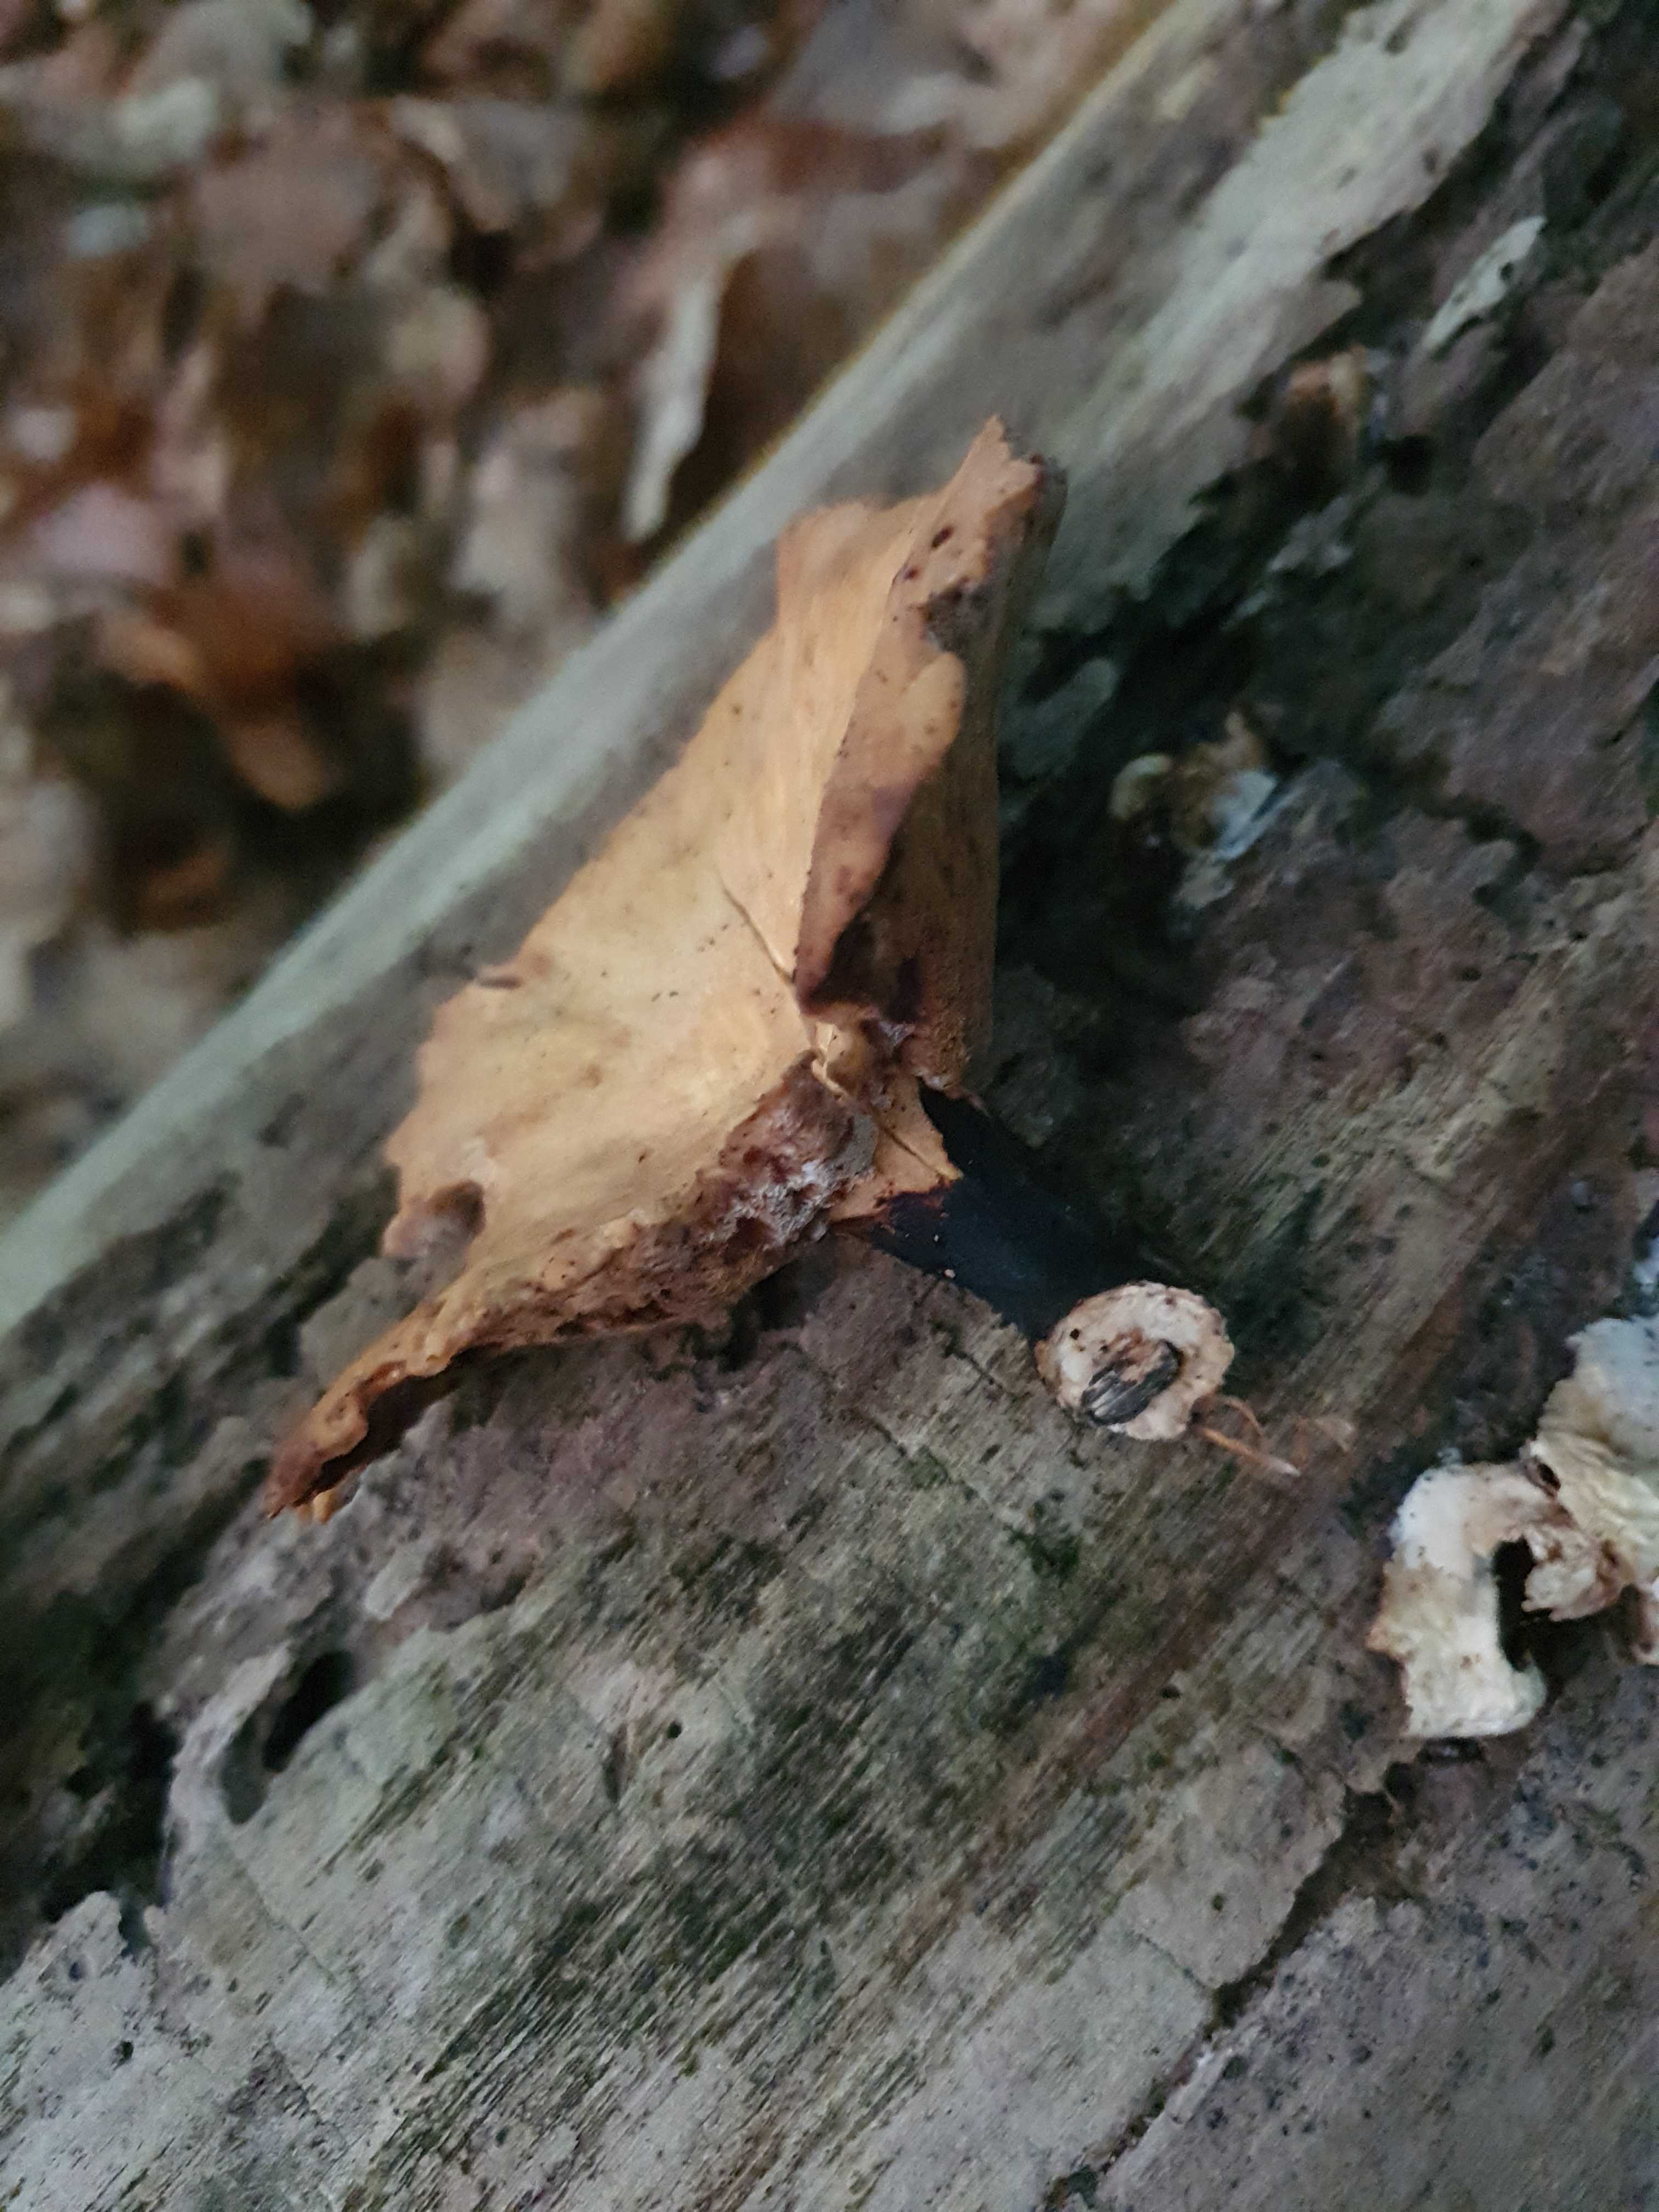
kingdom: Fungi
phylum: Basidiomycota
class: Agaricomycetes
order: Polyporales
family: Polyporaceae
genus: Cerioporus
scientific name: Cerioporus varius
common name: foranderlig stilkporesvamp
